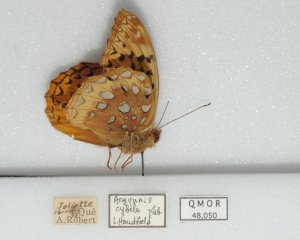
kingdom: Animalia
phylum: Arthropoda
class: Insecta
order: Lepidoptera
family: Nymphalidae
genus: Speyeria
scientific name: Speyeria cybele
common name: Great Spangled Fritillary
